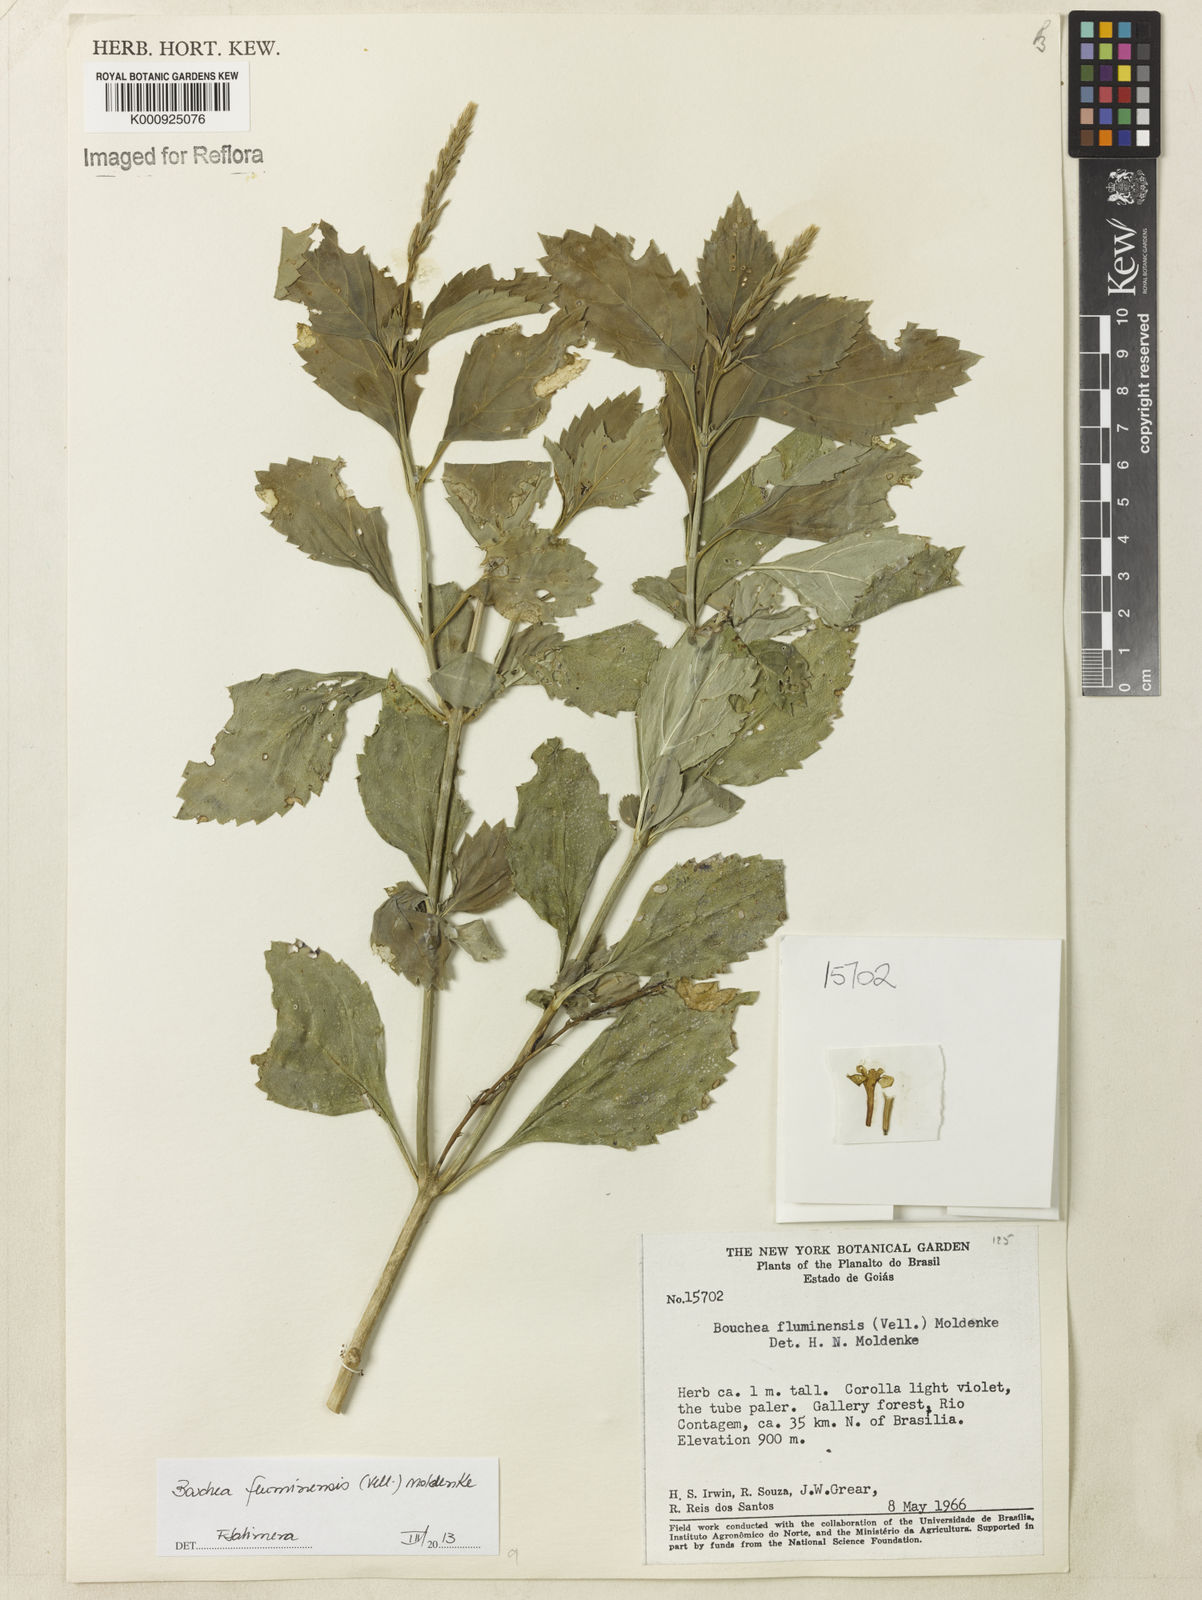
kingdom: Plantae
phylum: Tracheophyta
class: Magnoliopsida
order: Lamiales
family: Verbenaceae
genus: Bouchea
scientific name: Bouchea pseudogervao
